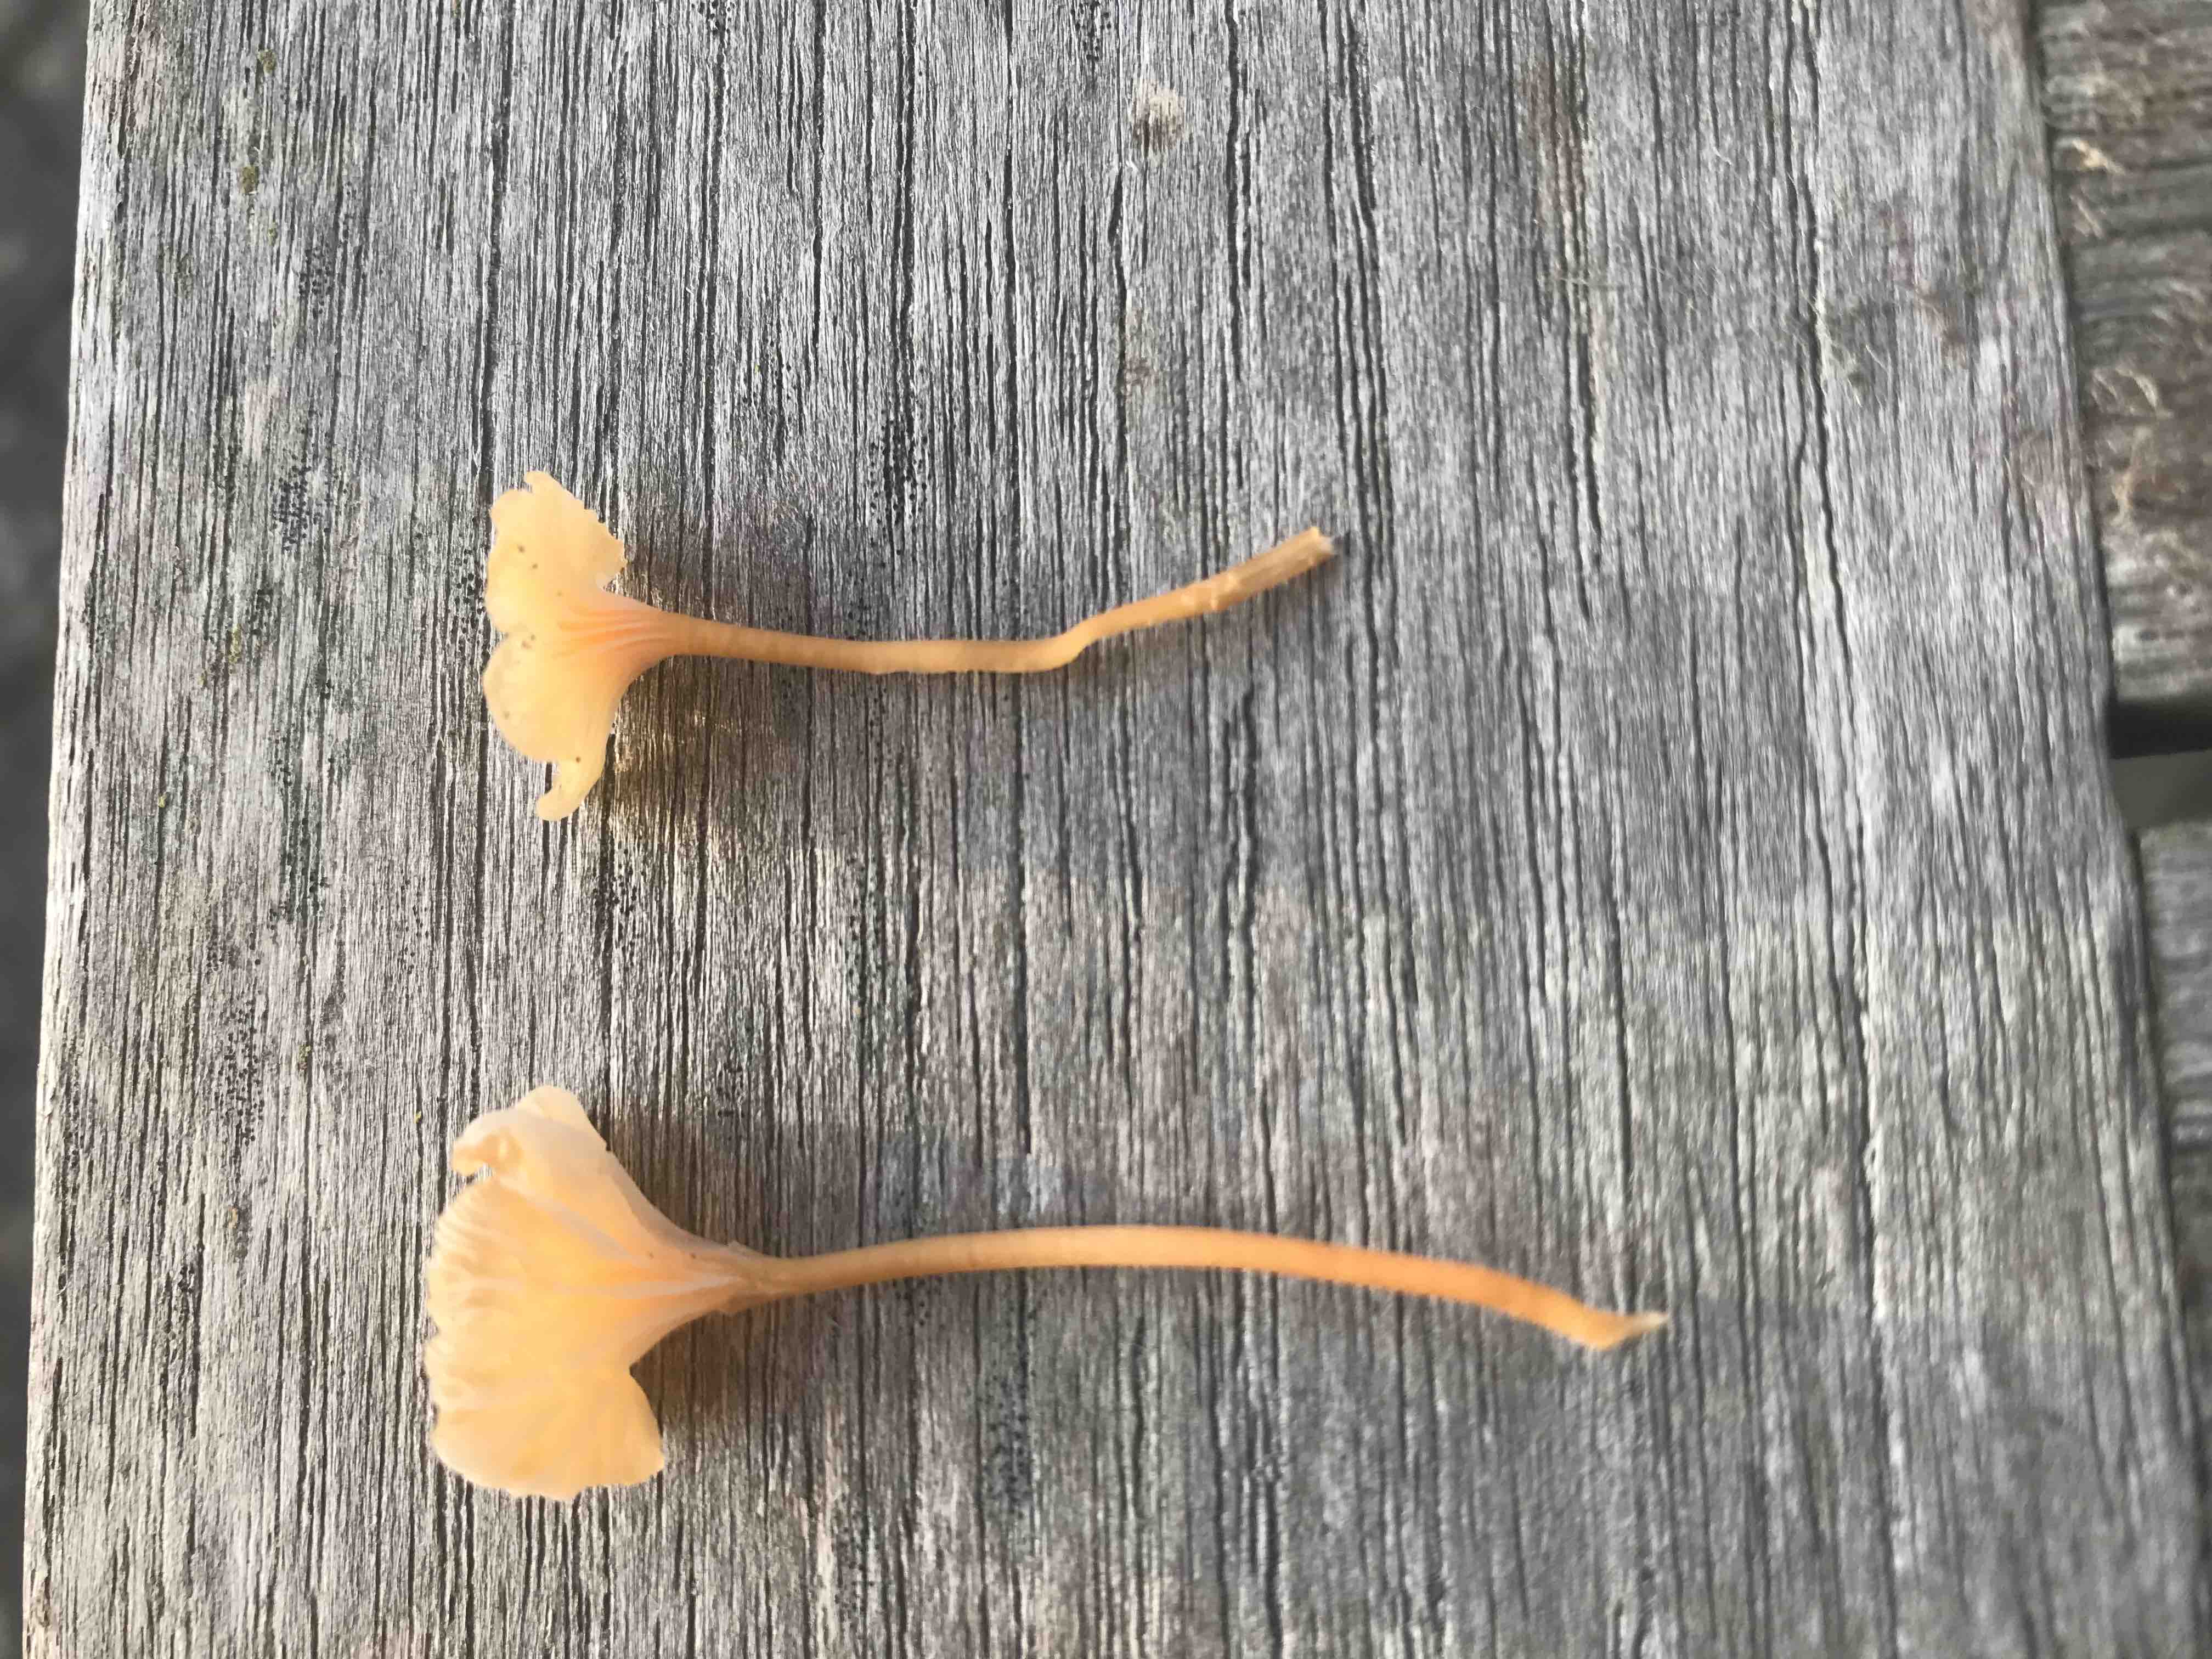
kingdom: Fungi
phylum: Basidiomycota
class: Agaricomycetes
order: Hymenochaetales
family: Rickenellaceae
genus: Rickenella
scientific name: Rickenella fibula
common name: orange mosnavlehat
